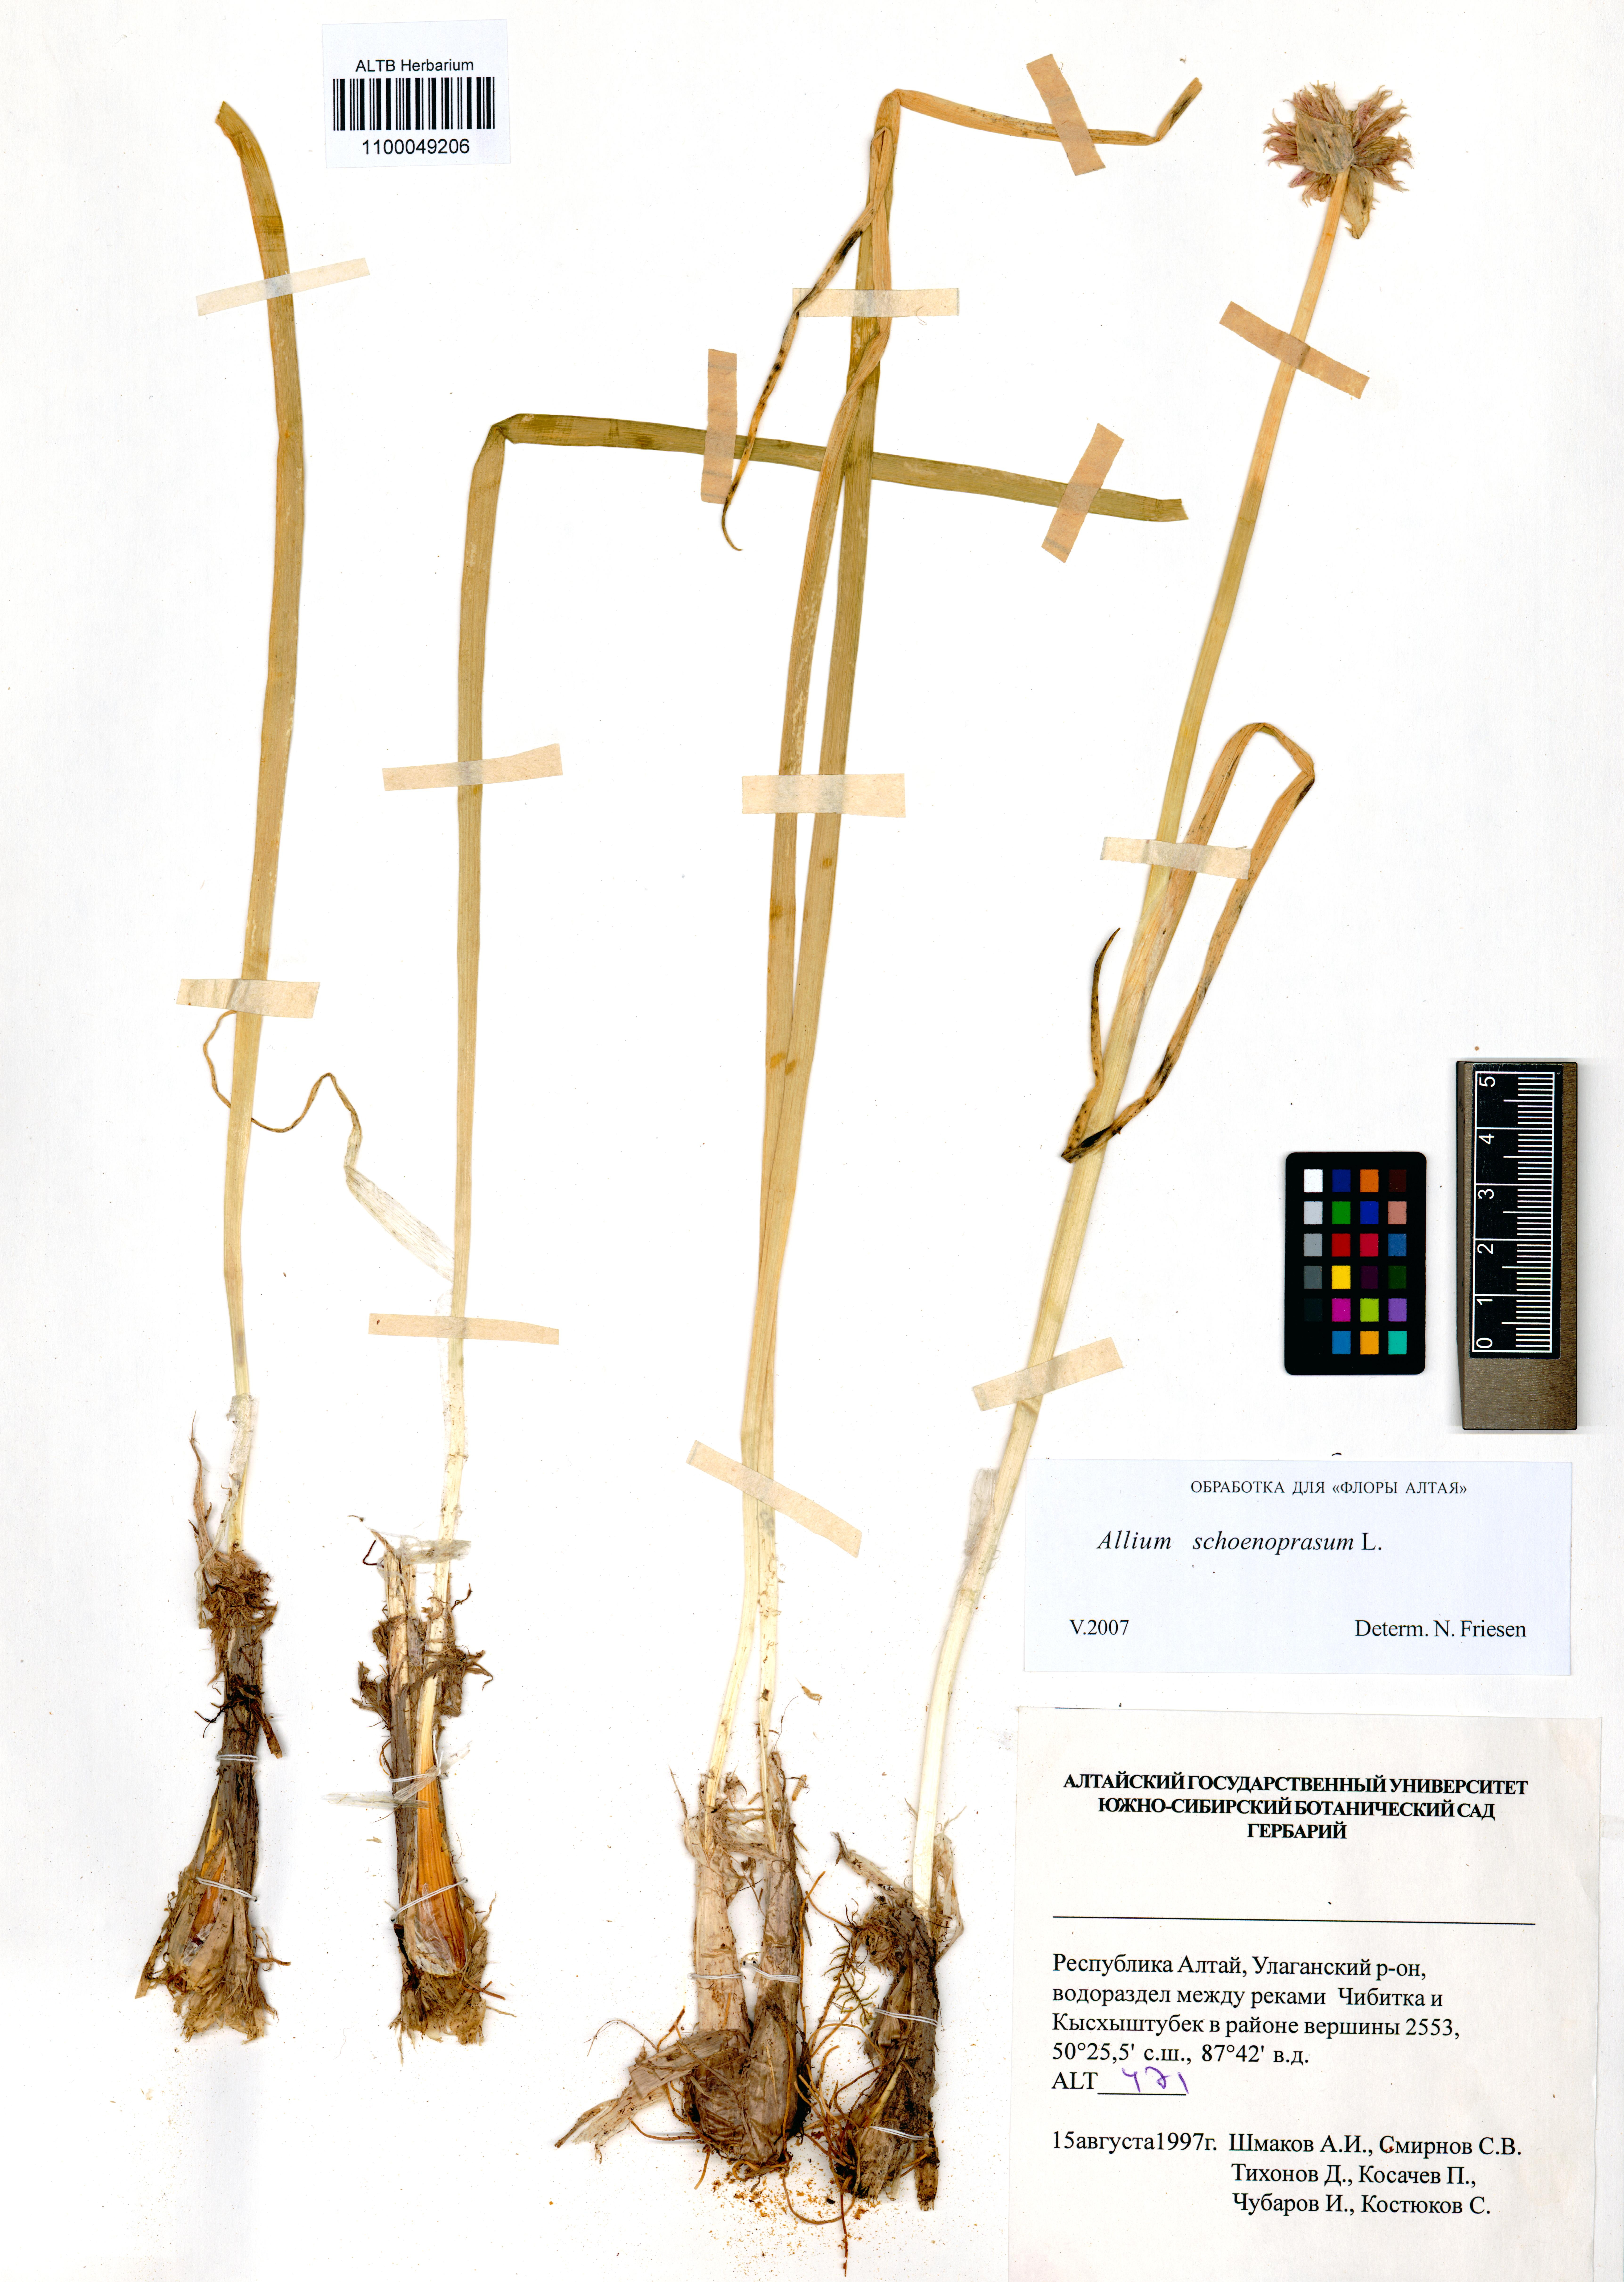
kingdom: Plantae
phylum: Tracheophyta
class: Liliopsida
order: Asparagales
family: Amaryllidaceae
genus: Allium
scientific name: Allium schoenoprasum
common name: Chives
